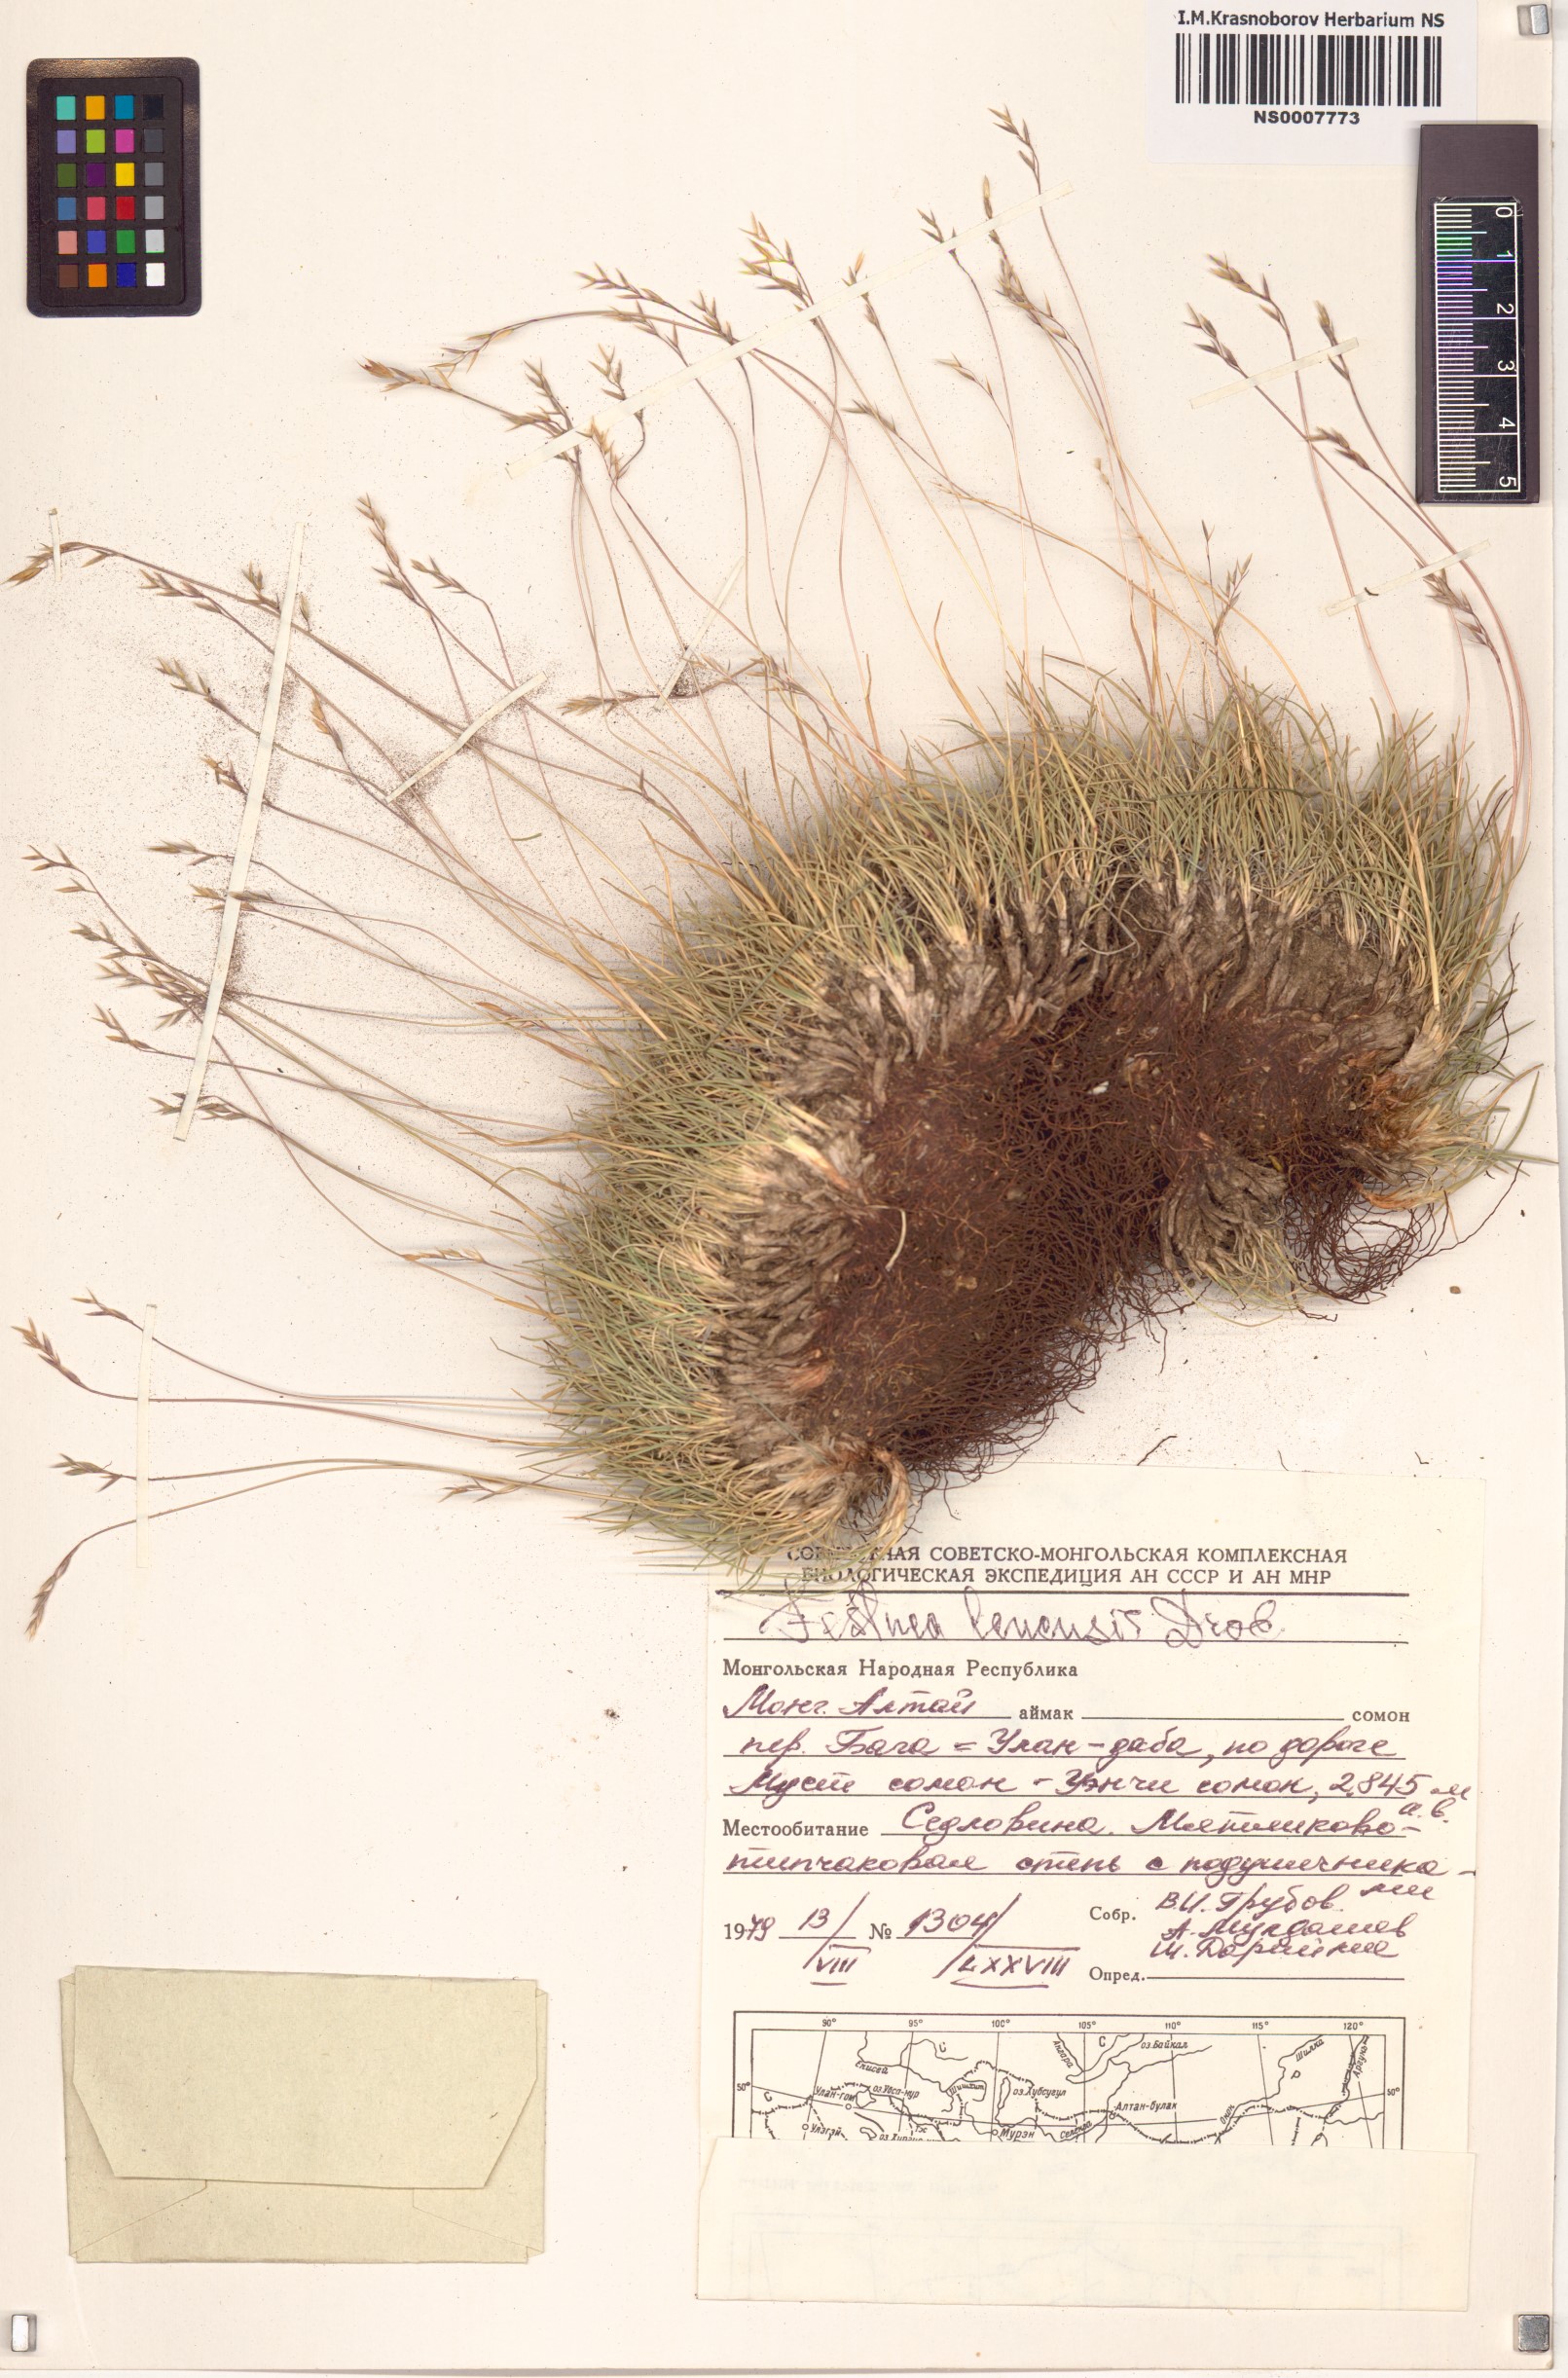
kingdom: Plantae
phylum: Tracheophyta
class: Liliopsida
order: Poales
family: Poaceae
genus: Festuca
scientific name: Festuca lenensis
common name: Lena river fescue
